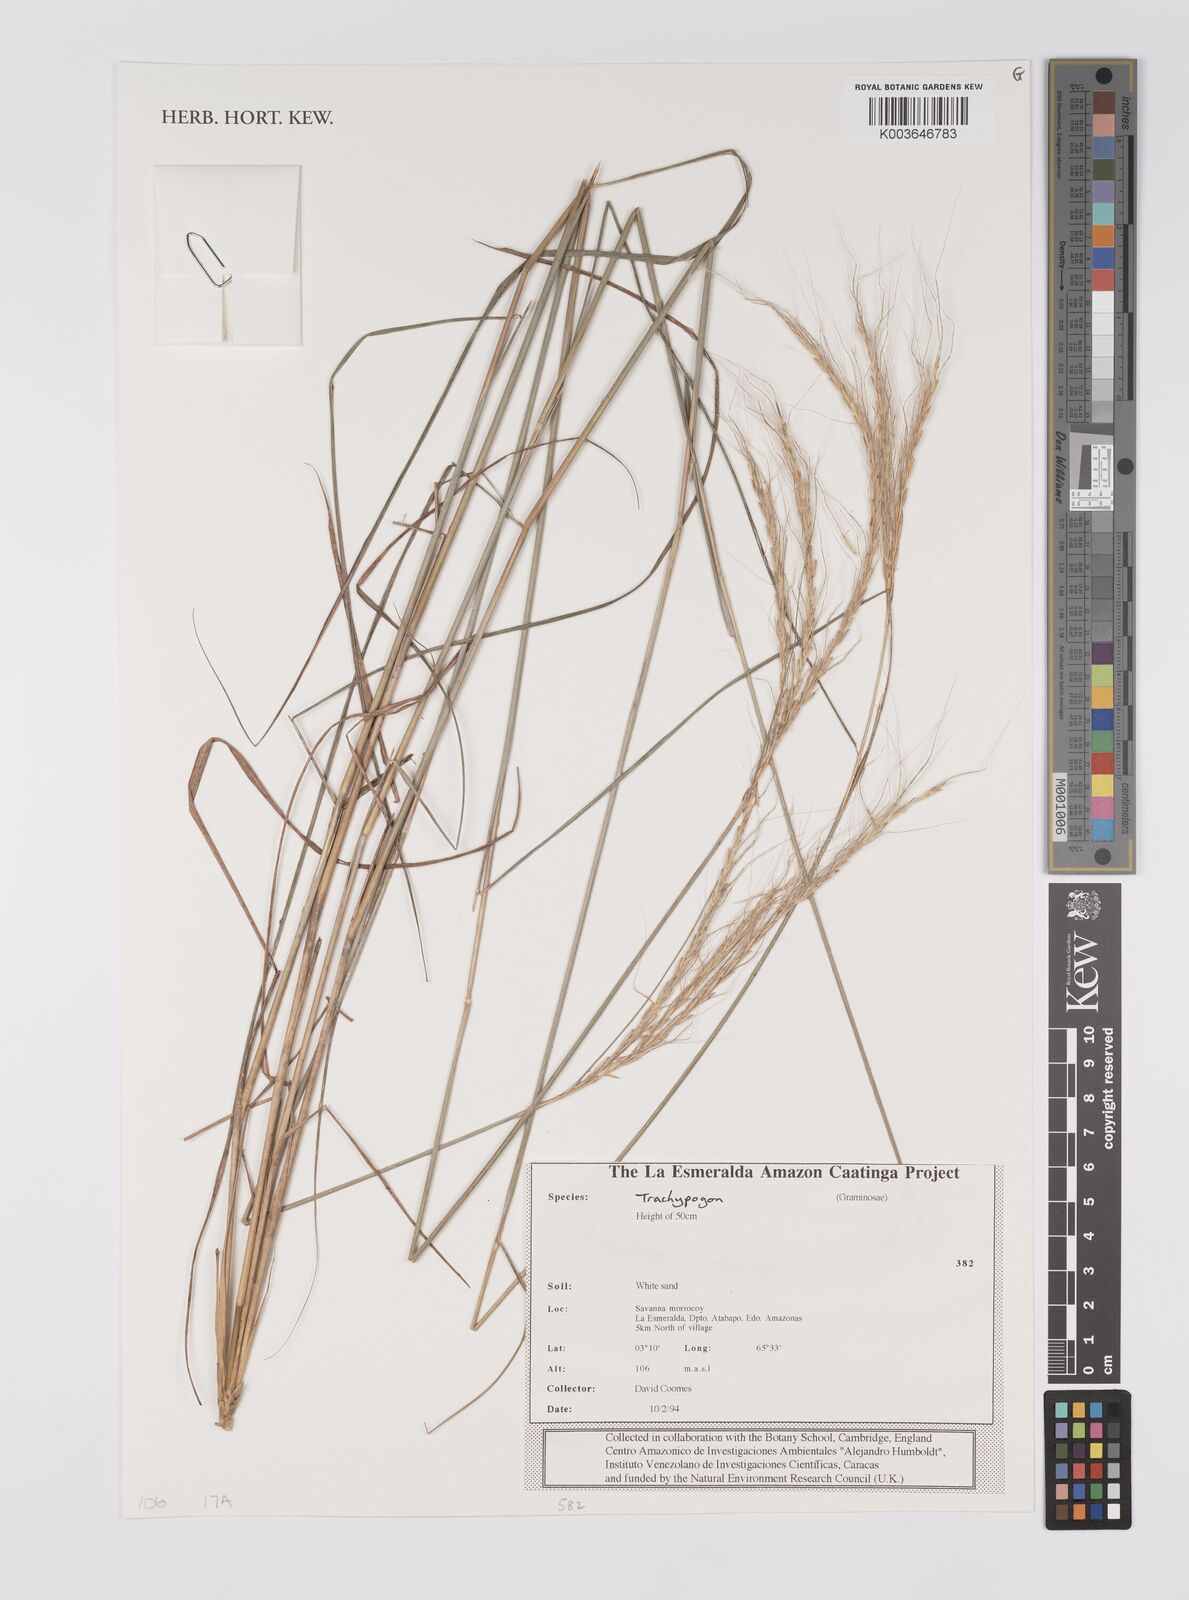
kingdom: Plantae
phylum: Tracheophyta
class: Liliopsida
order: Poales
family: Poaceae
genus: Trachypogon
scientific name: Trachypogon
